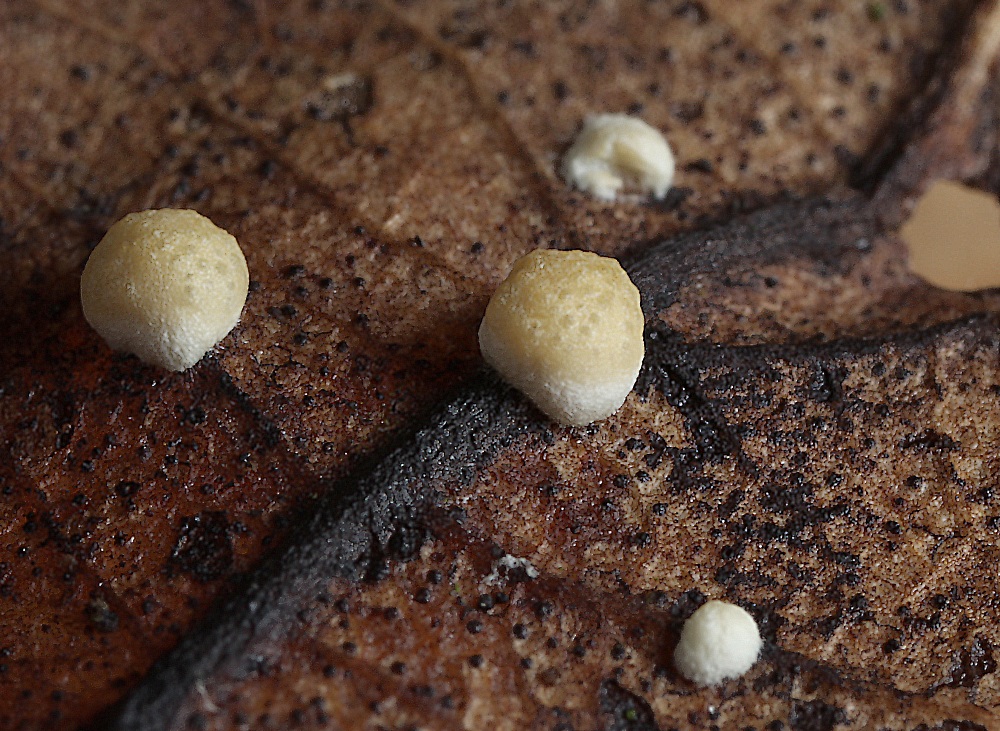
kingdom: Fungi
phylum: Ascomycota
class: Sordariomycetes
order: Hypocreales
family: Hypocreaceae
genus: Trichoderma
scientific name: Trichoderma foliicola
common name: egeløv-kødkerne
